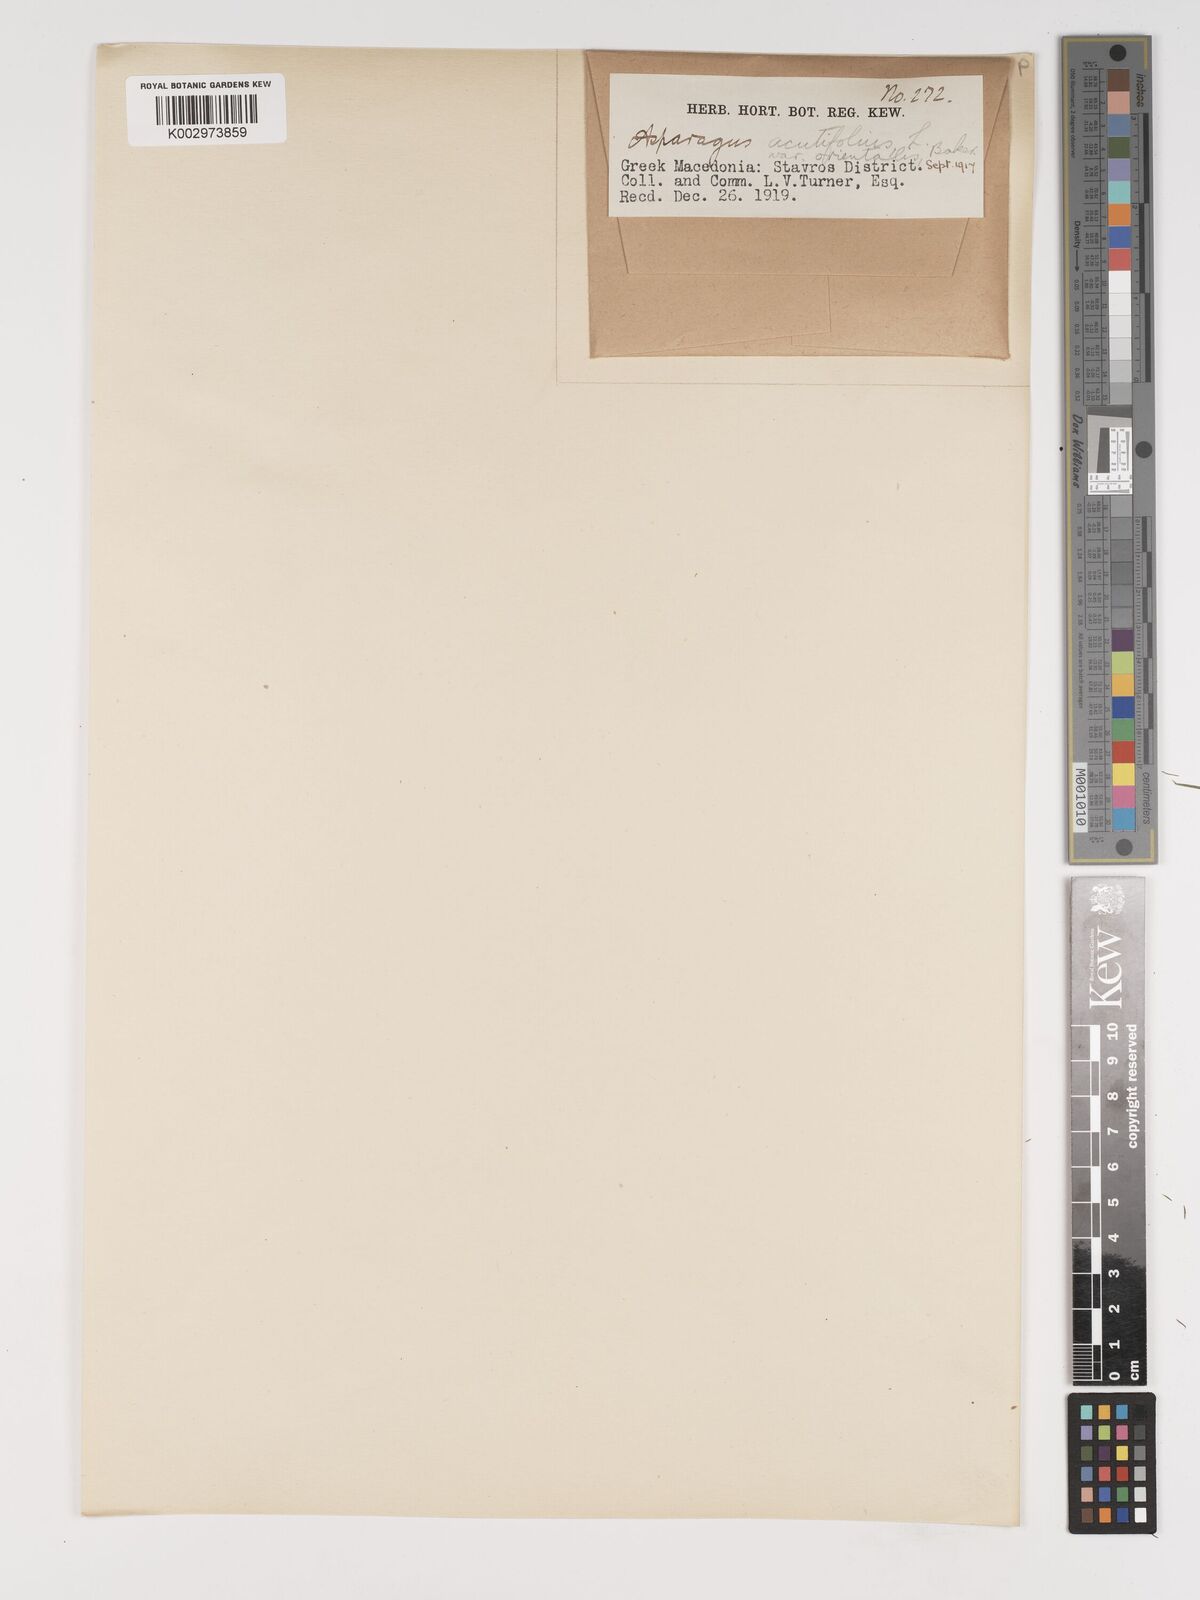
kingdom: Plantae
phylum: Tracheophyta
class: Liliopsida
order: Asparagales
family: Asparagaceae
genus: Asparagus
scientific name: Asparagus acutifolius
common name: Wild asparagus
